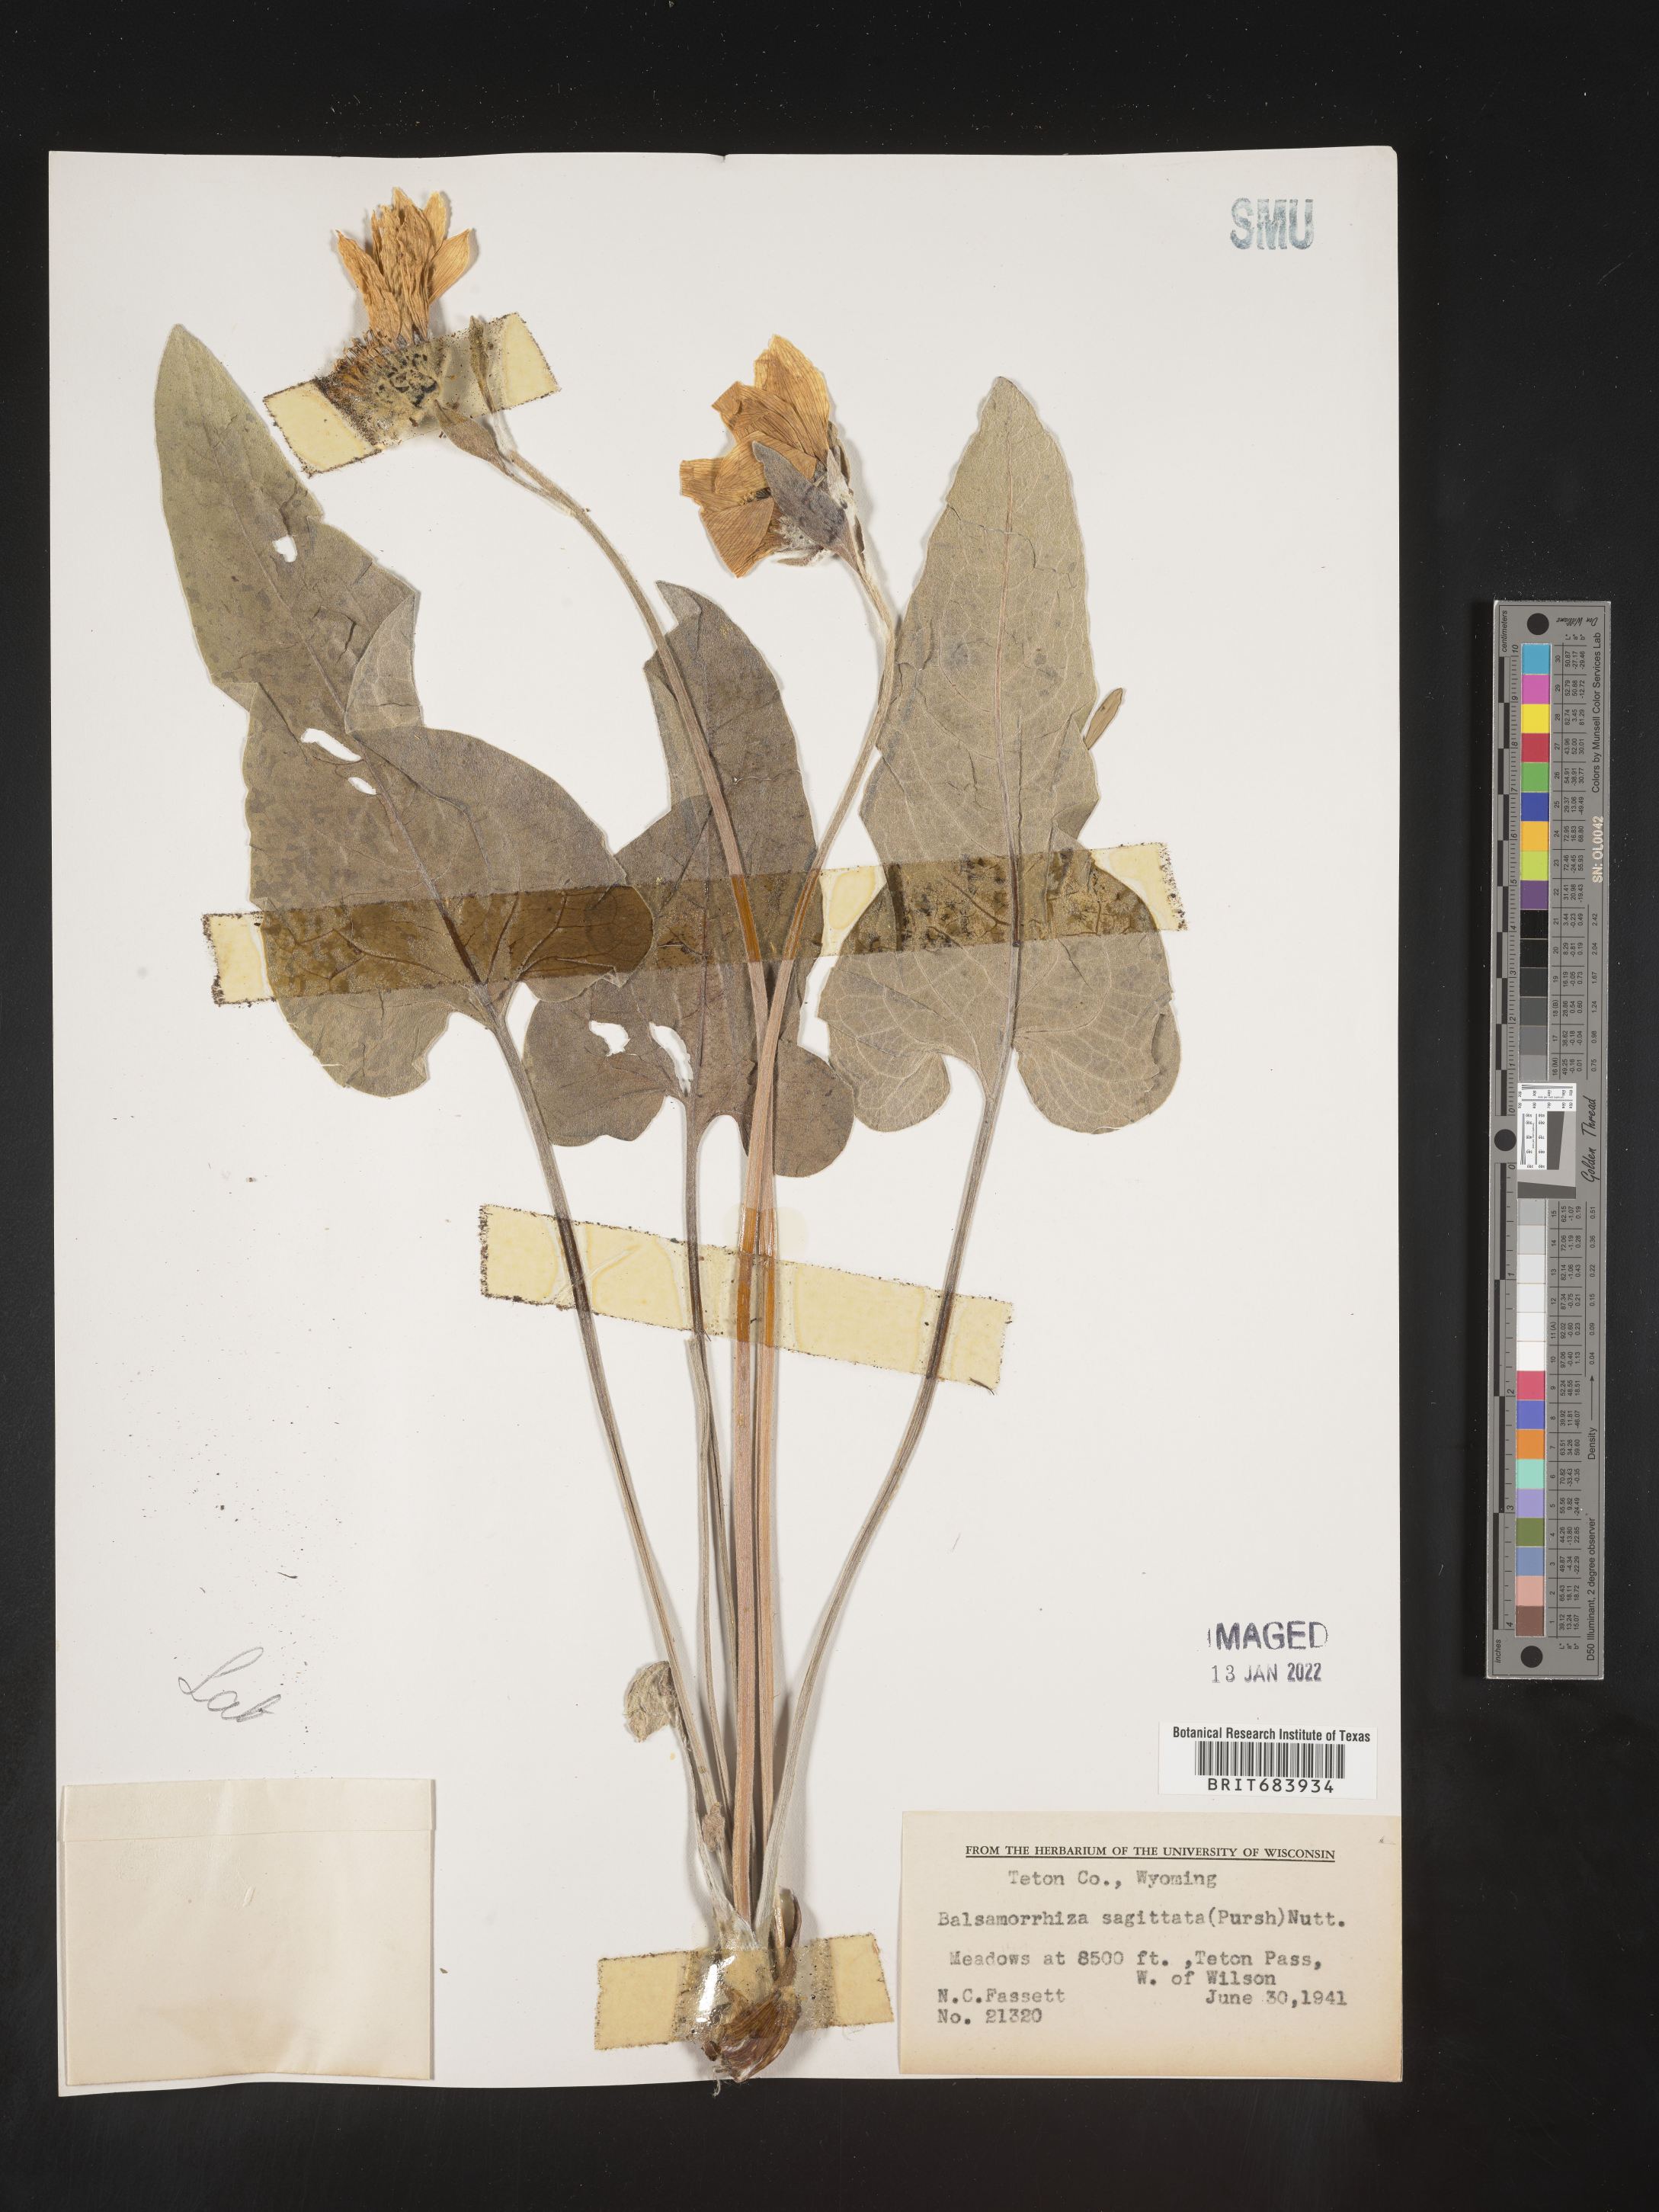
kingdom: Plantae
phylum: Tracheophyta
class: Magnoliopsida
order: Asterales
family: Asteraceae
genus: Wyethia
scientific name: Wyethia sagittata
